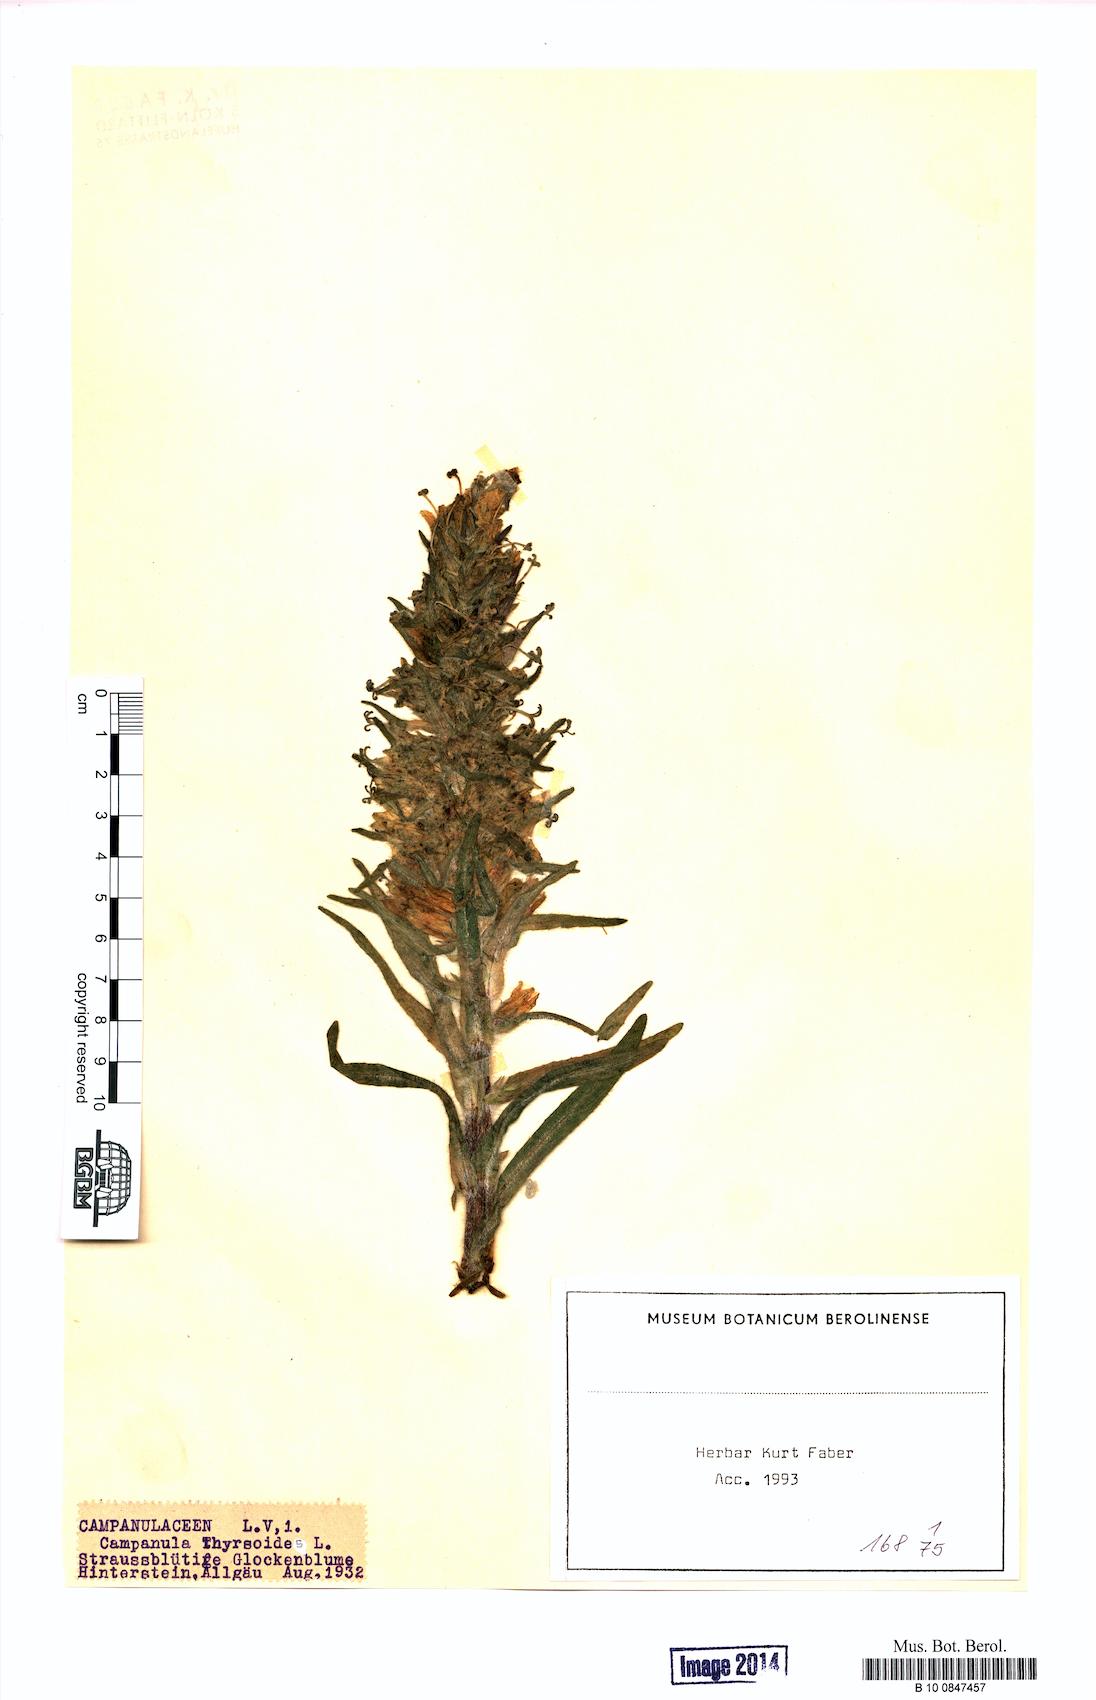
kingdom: Plantae
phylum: Tracheophyta
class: Magnoliopsida
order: Asterales
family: Campanulaceae
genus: Campanula
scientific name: Campanula thyrsoides
